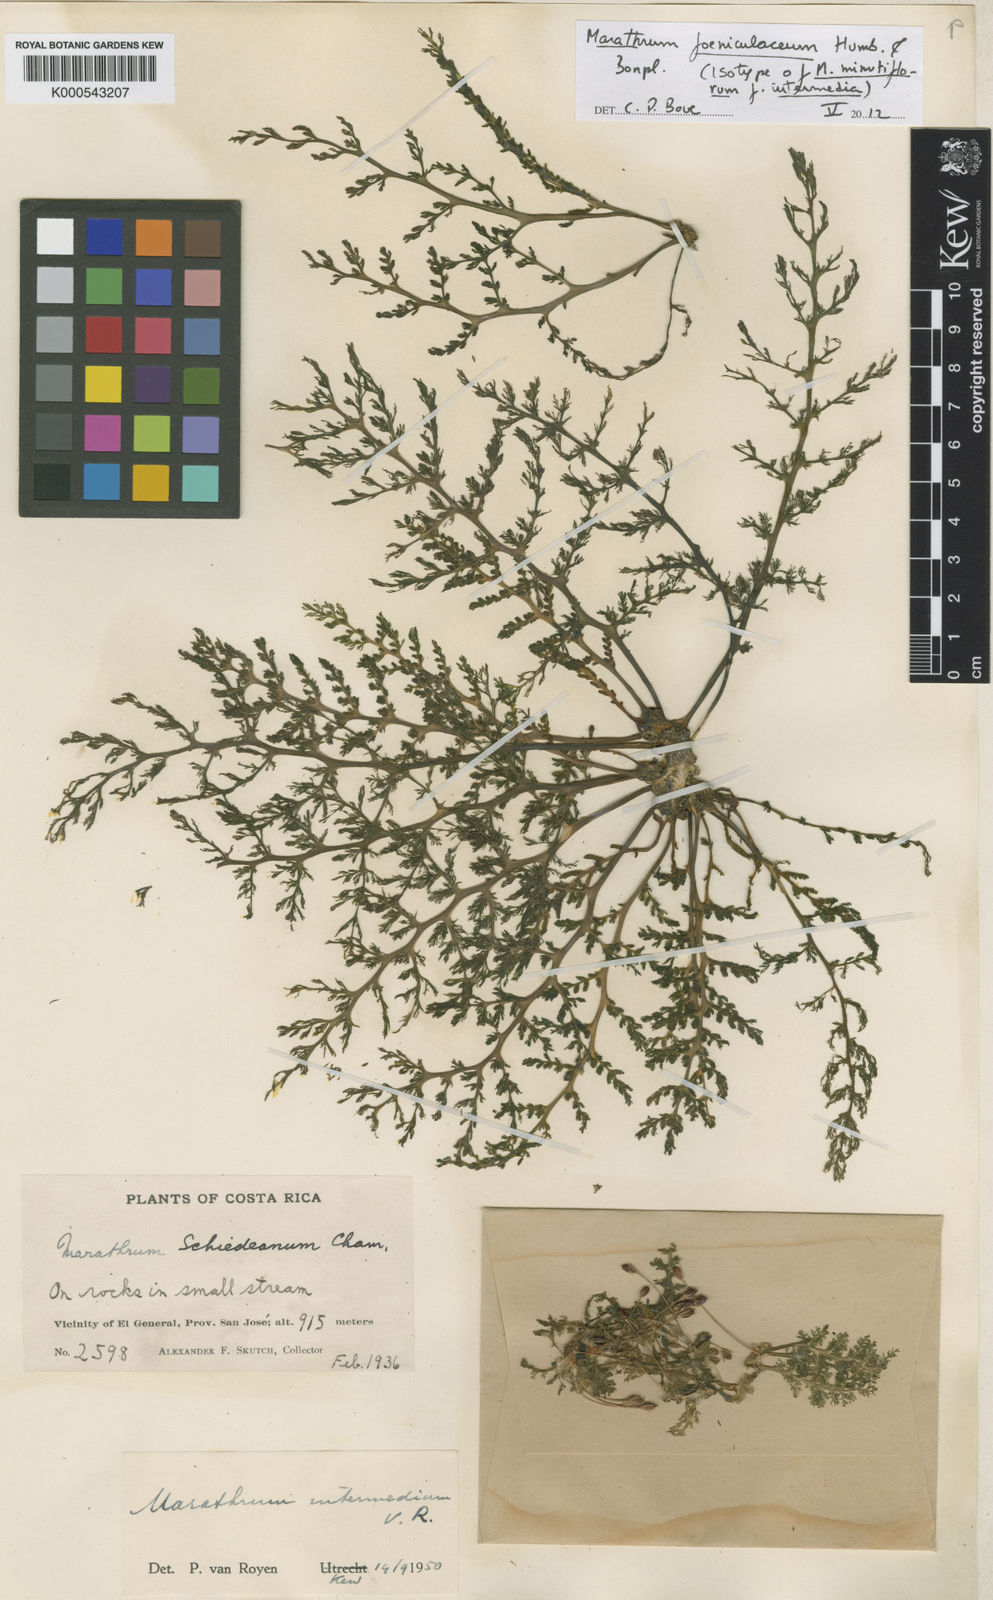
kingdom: Plantae
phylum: Tracheophyta
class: Magnoliopsida
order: Malpighiales
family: Podostemaceae
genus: Marathrum
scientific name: Marathrum foeniculaceum
